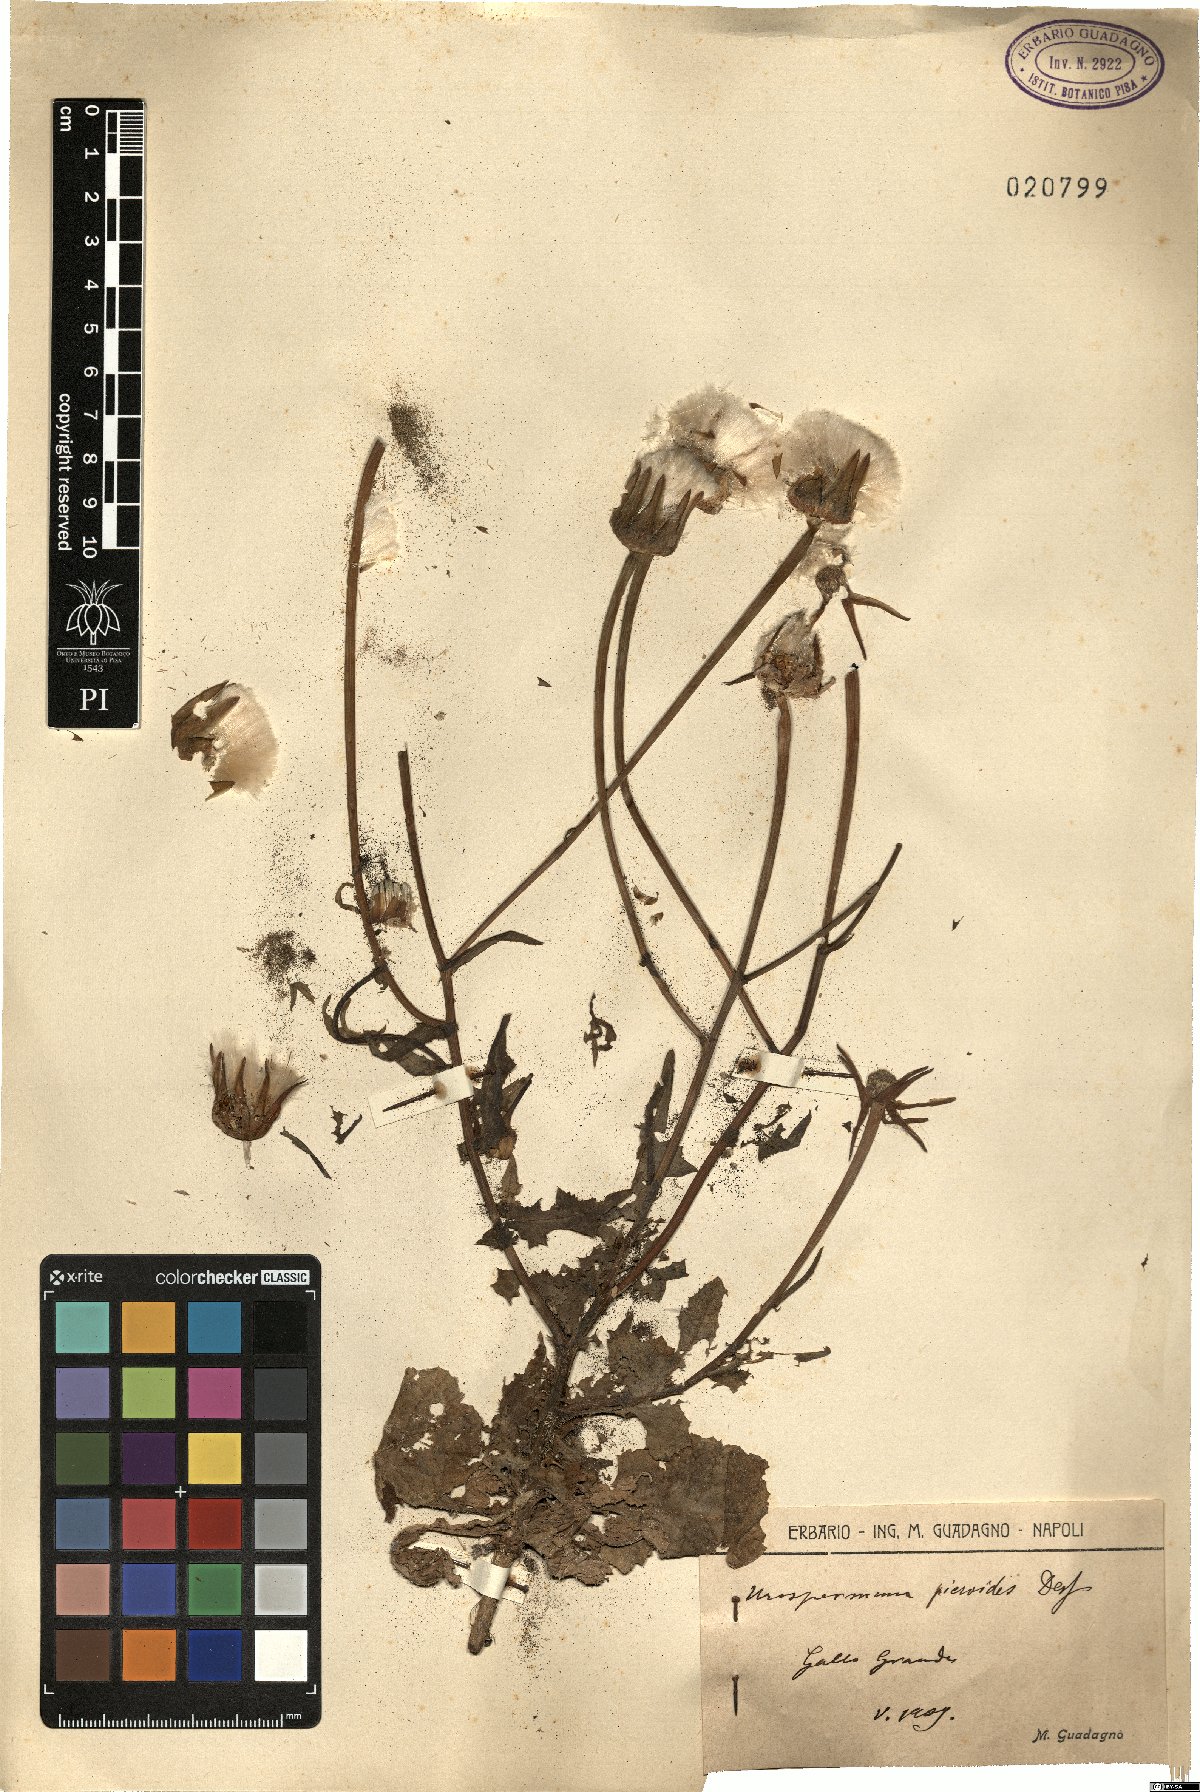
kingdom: Plantae
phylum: Tracheophyta
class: Magnoliopsida
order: Asterales
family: Asteraceae
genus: Urospermum
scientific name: Urospermum picroides
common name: False hawkbit
